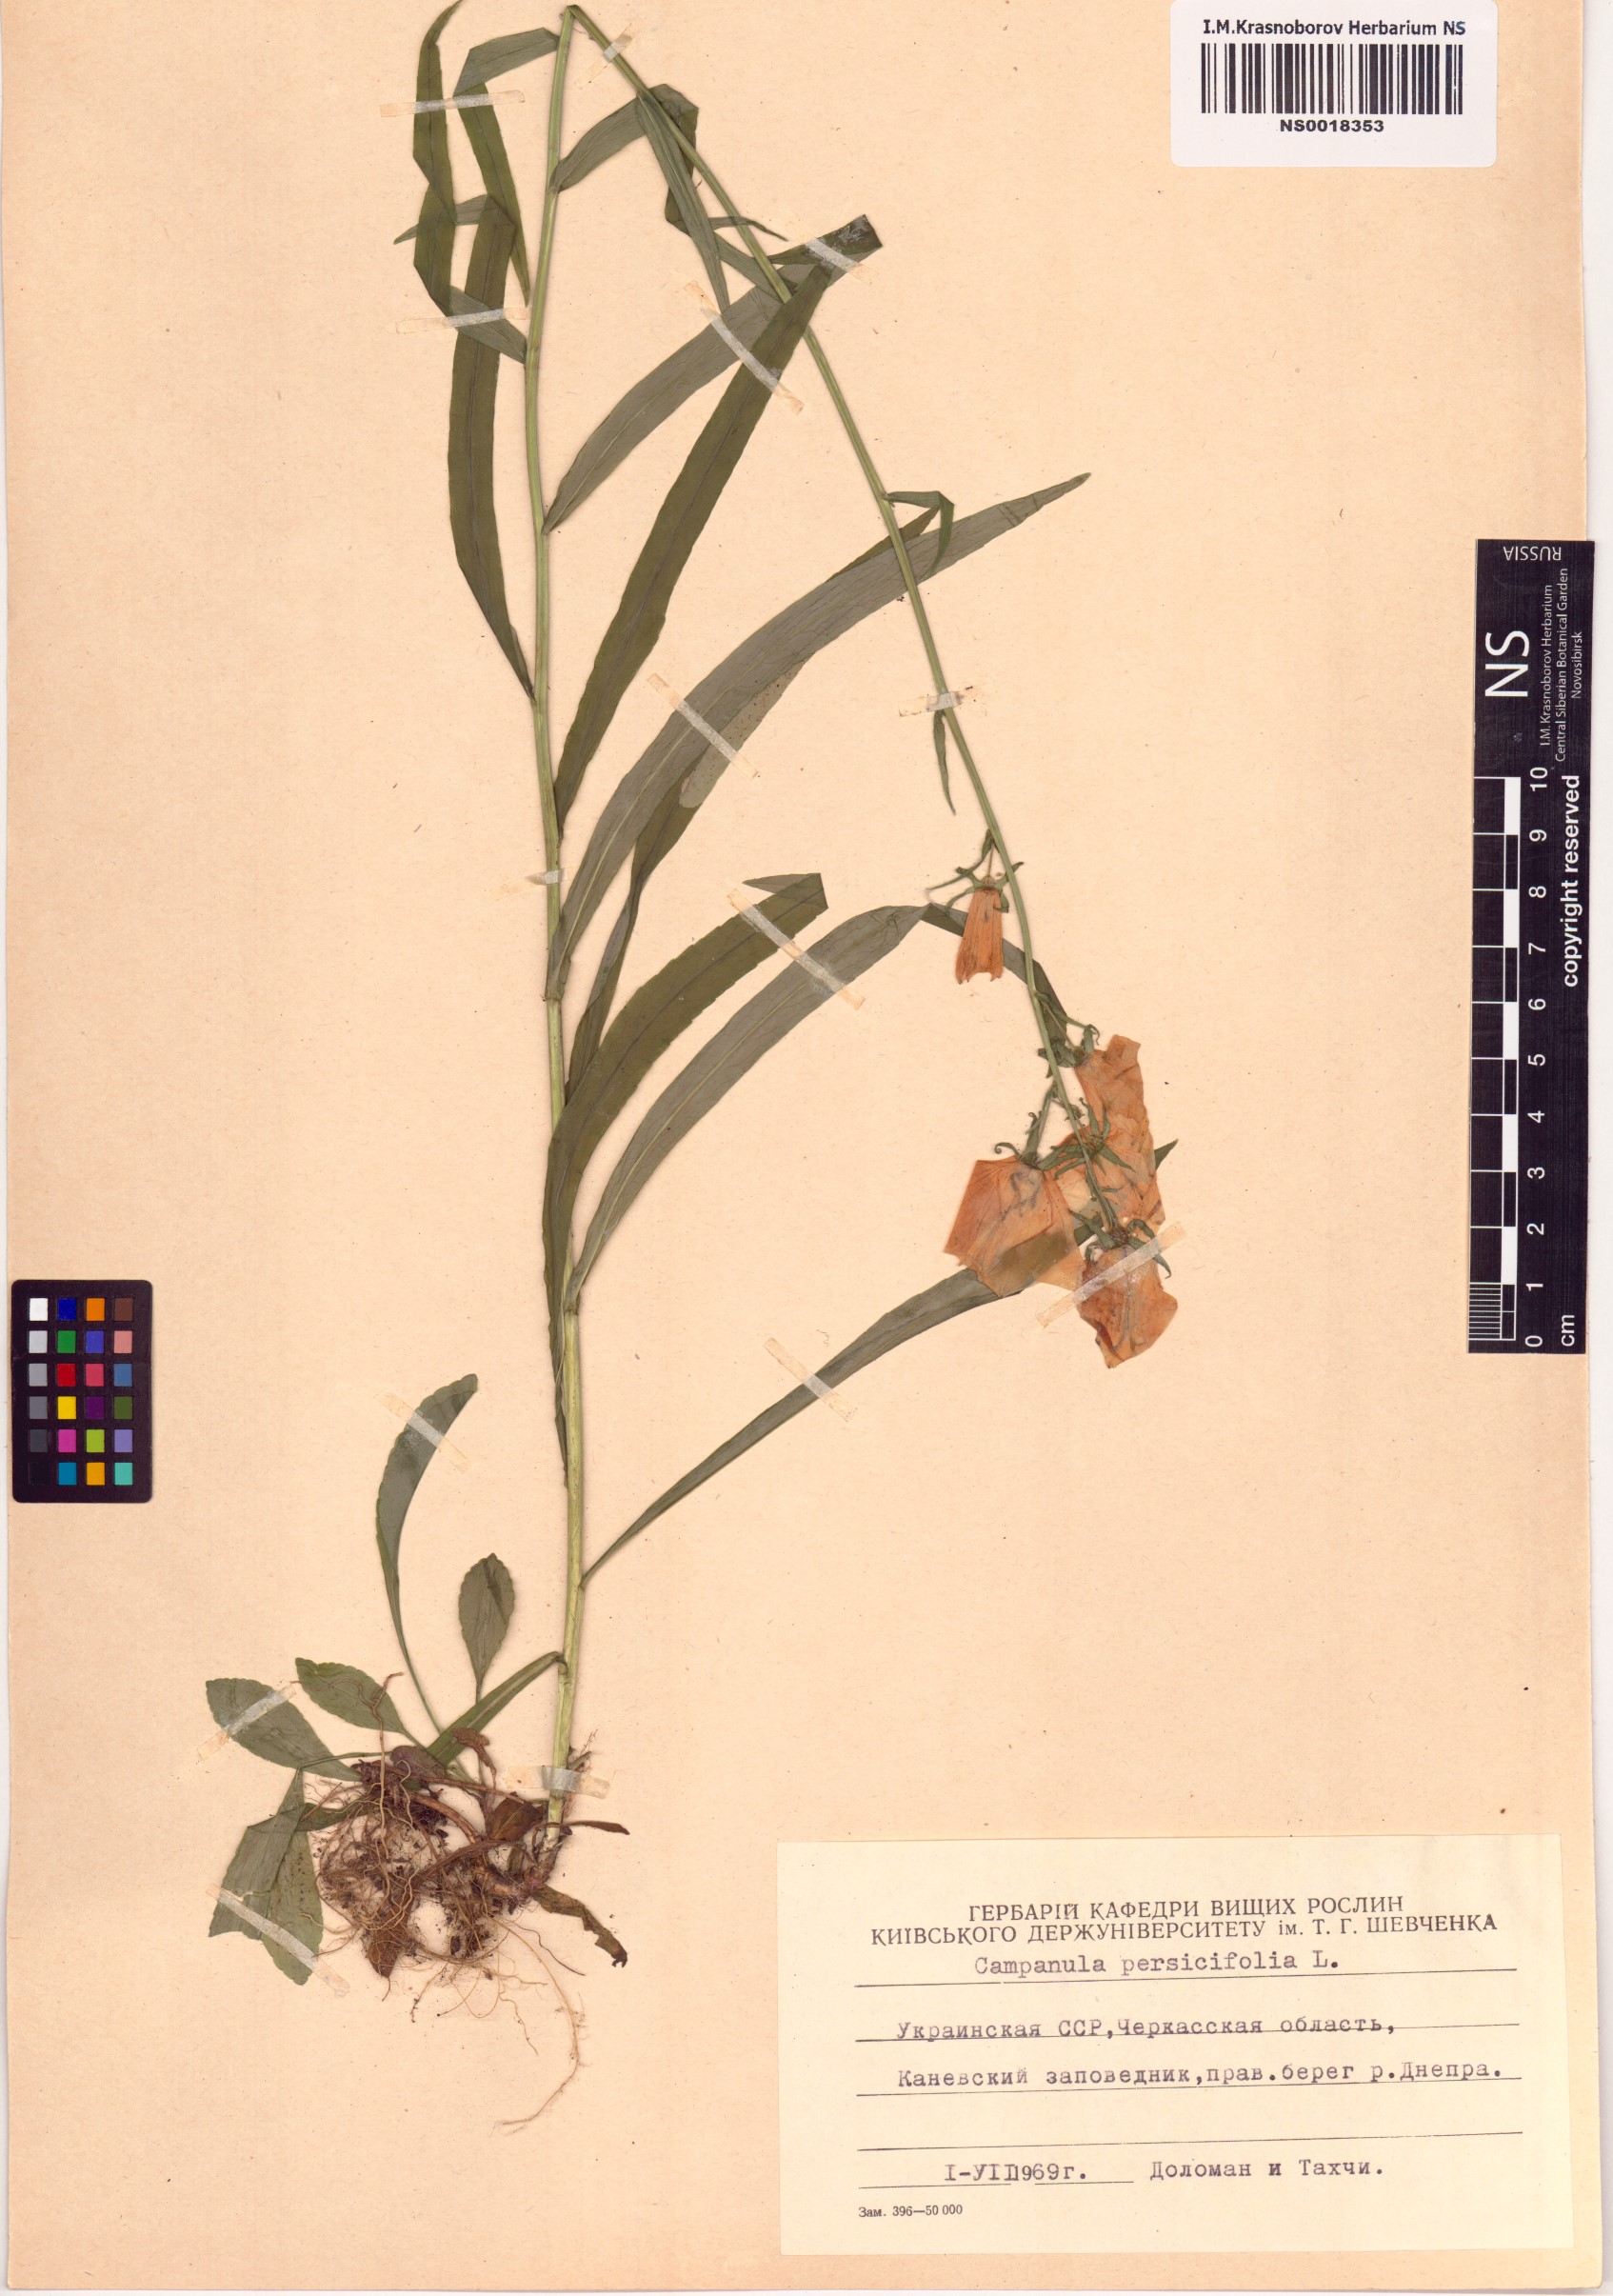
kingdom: Plantae
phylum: Tracheophyta
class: Magnoliopsida
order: Asterales
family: Campanulaceae
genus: Campanula
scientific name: Campanula persicifolia
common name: Peach-leaved bellflower
